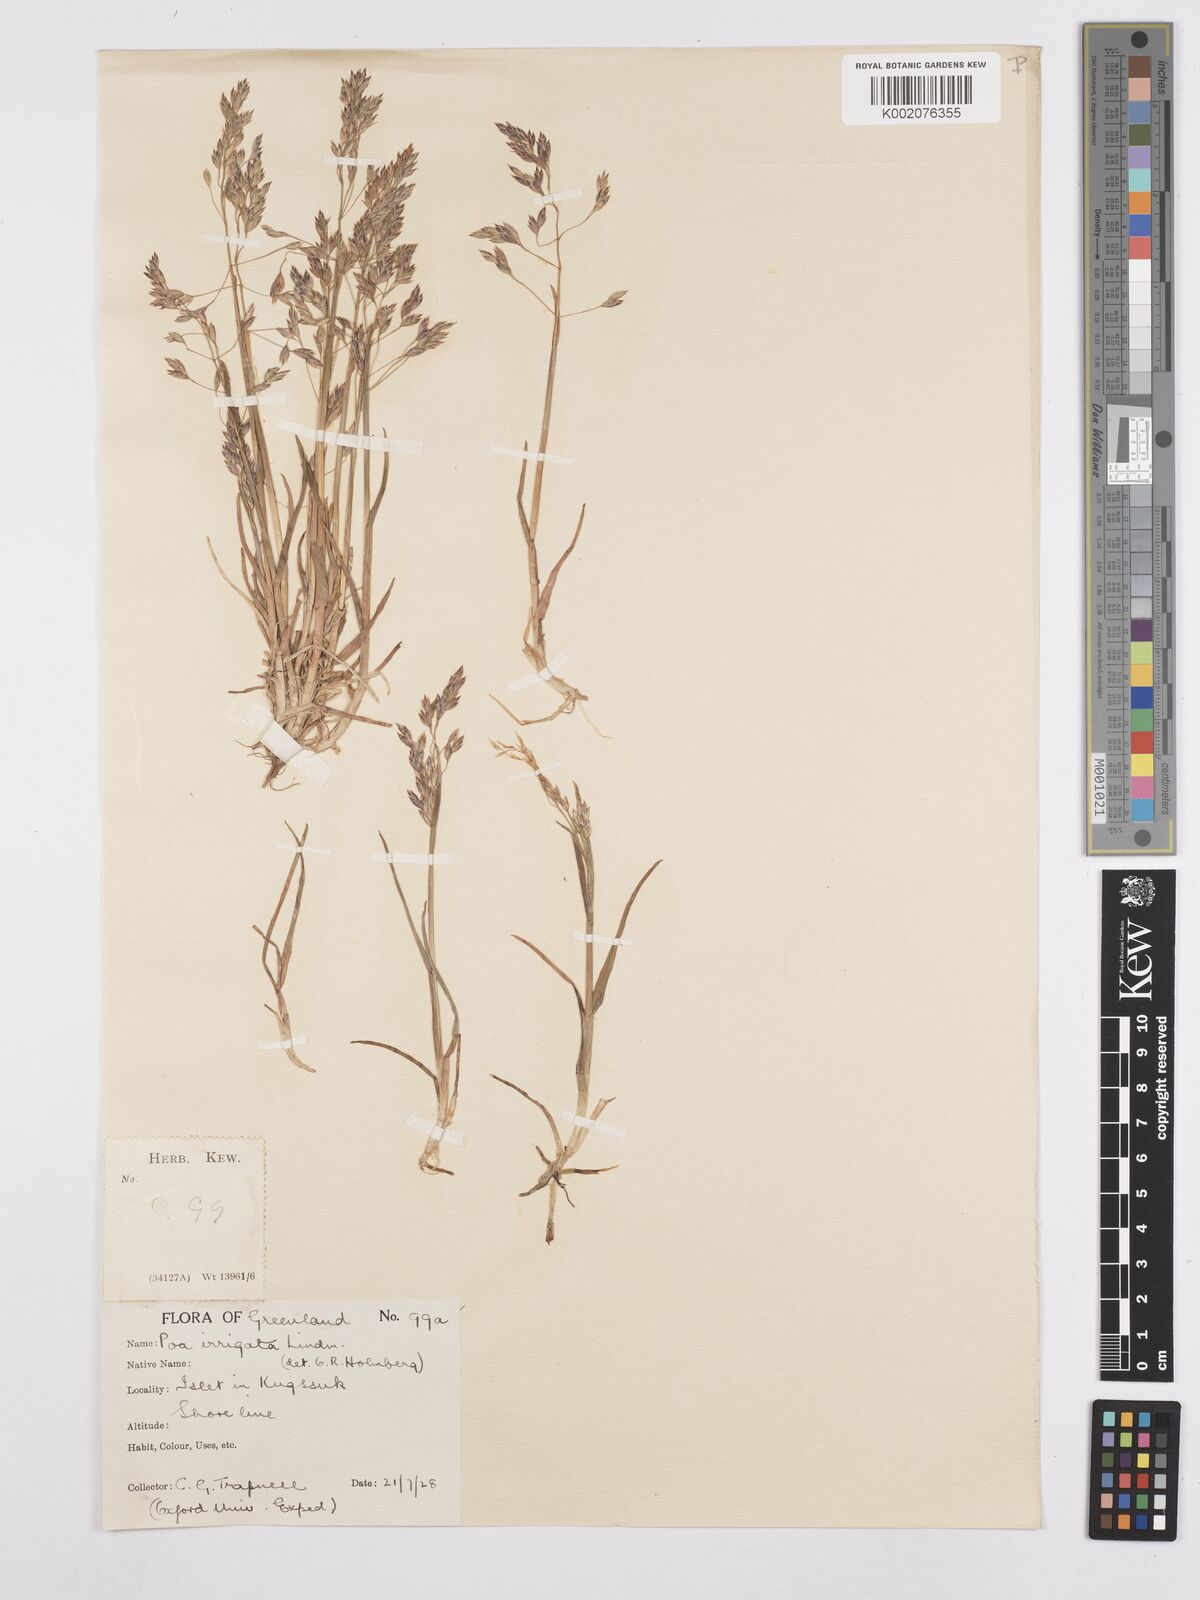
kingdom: Plantae
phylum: Tracheophyta
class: Liliopsida
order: Poales
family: Poaceae
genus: Poa
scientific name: Poa
